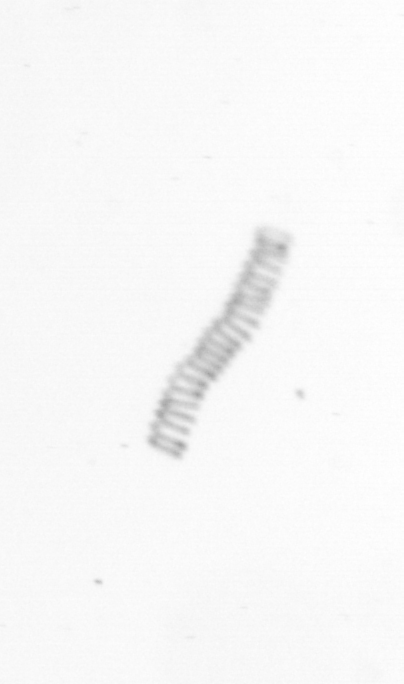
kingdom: Chromista
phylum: Ochrophyta
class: Bacillariophyceae
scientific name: Bacillariophyceae
